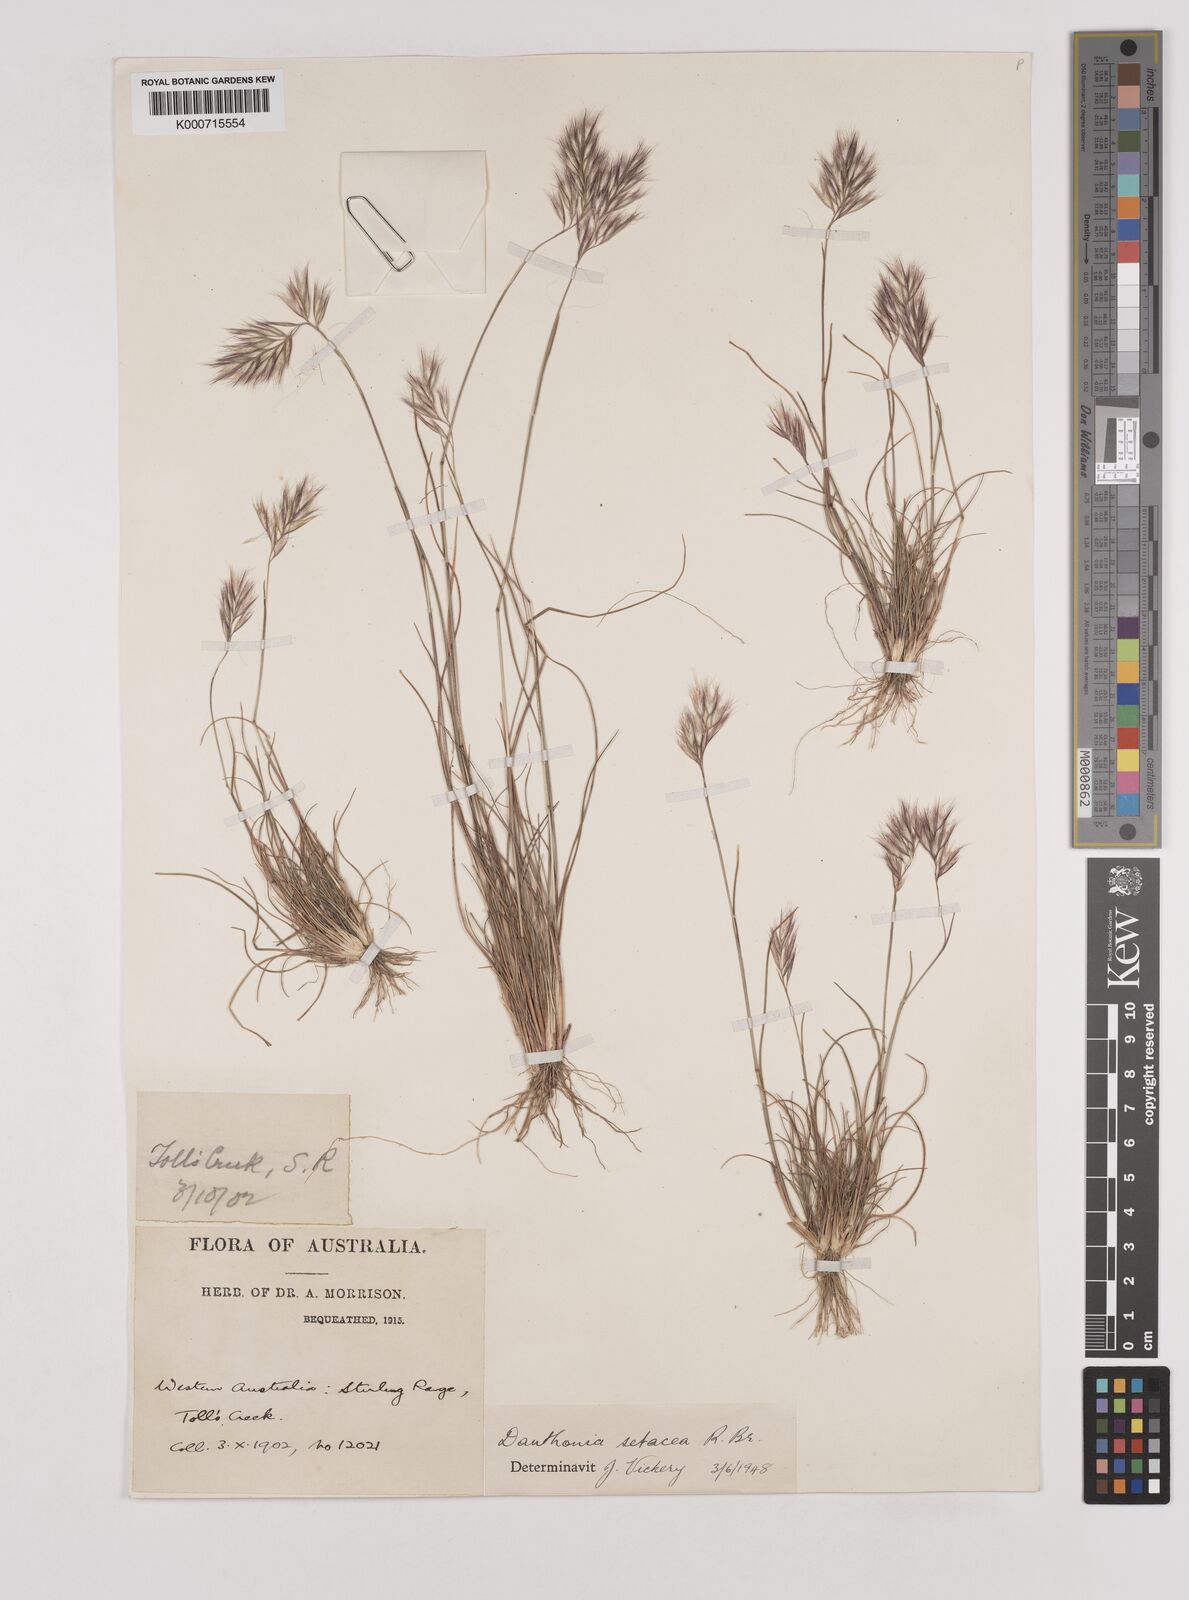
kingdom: Plantae
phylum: Tracheophyta
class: Liliopsida
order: Poales
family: Poaceae
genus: Rytidosperma
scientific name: Rytidosperma setaceum
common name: Small-flower wallaby grass
